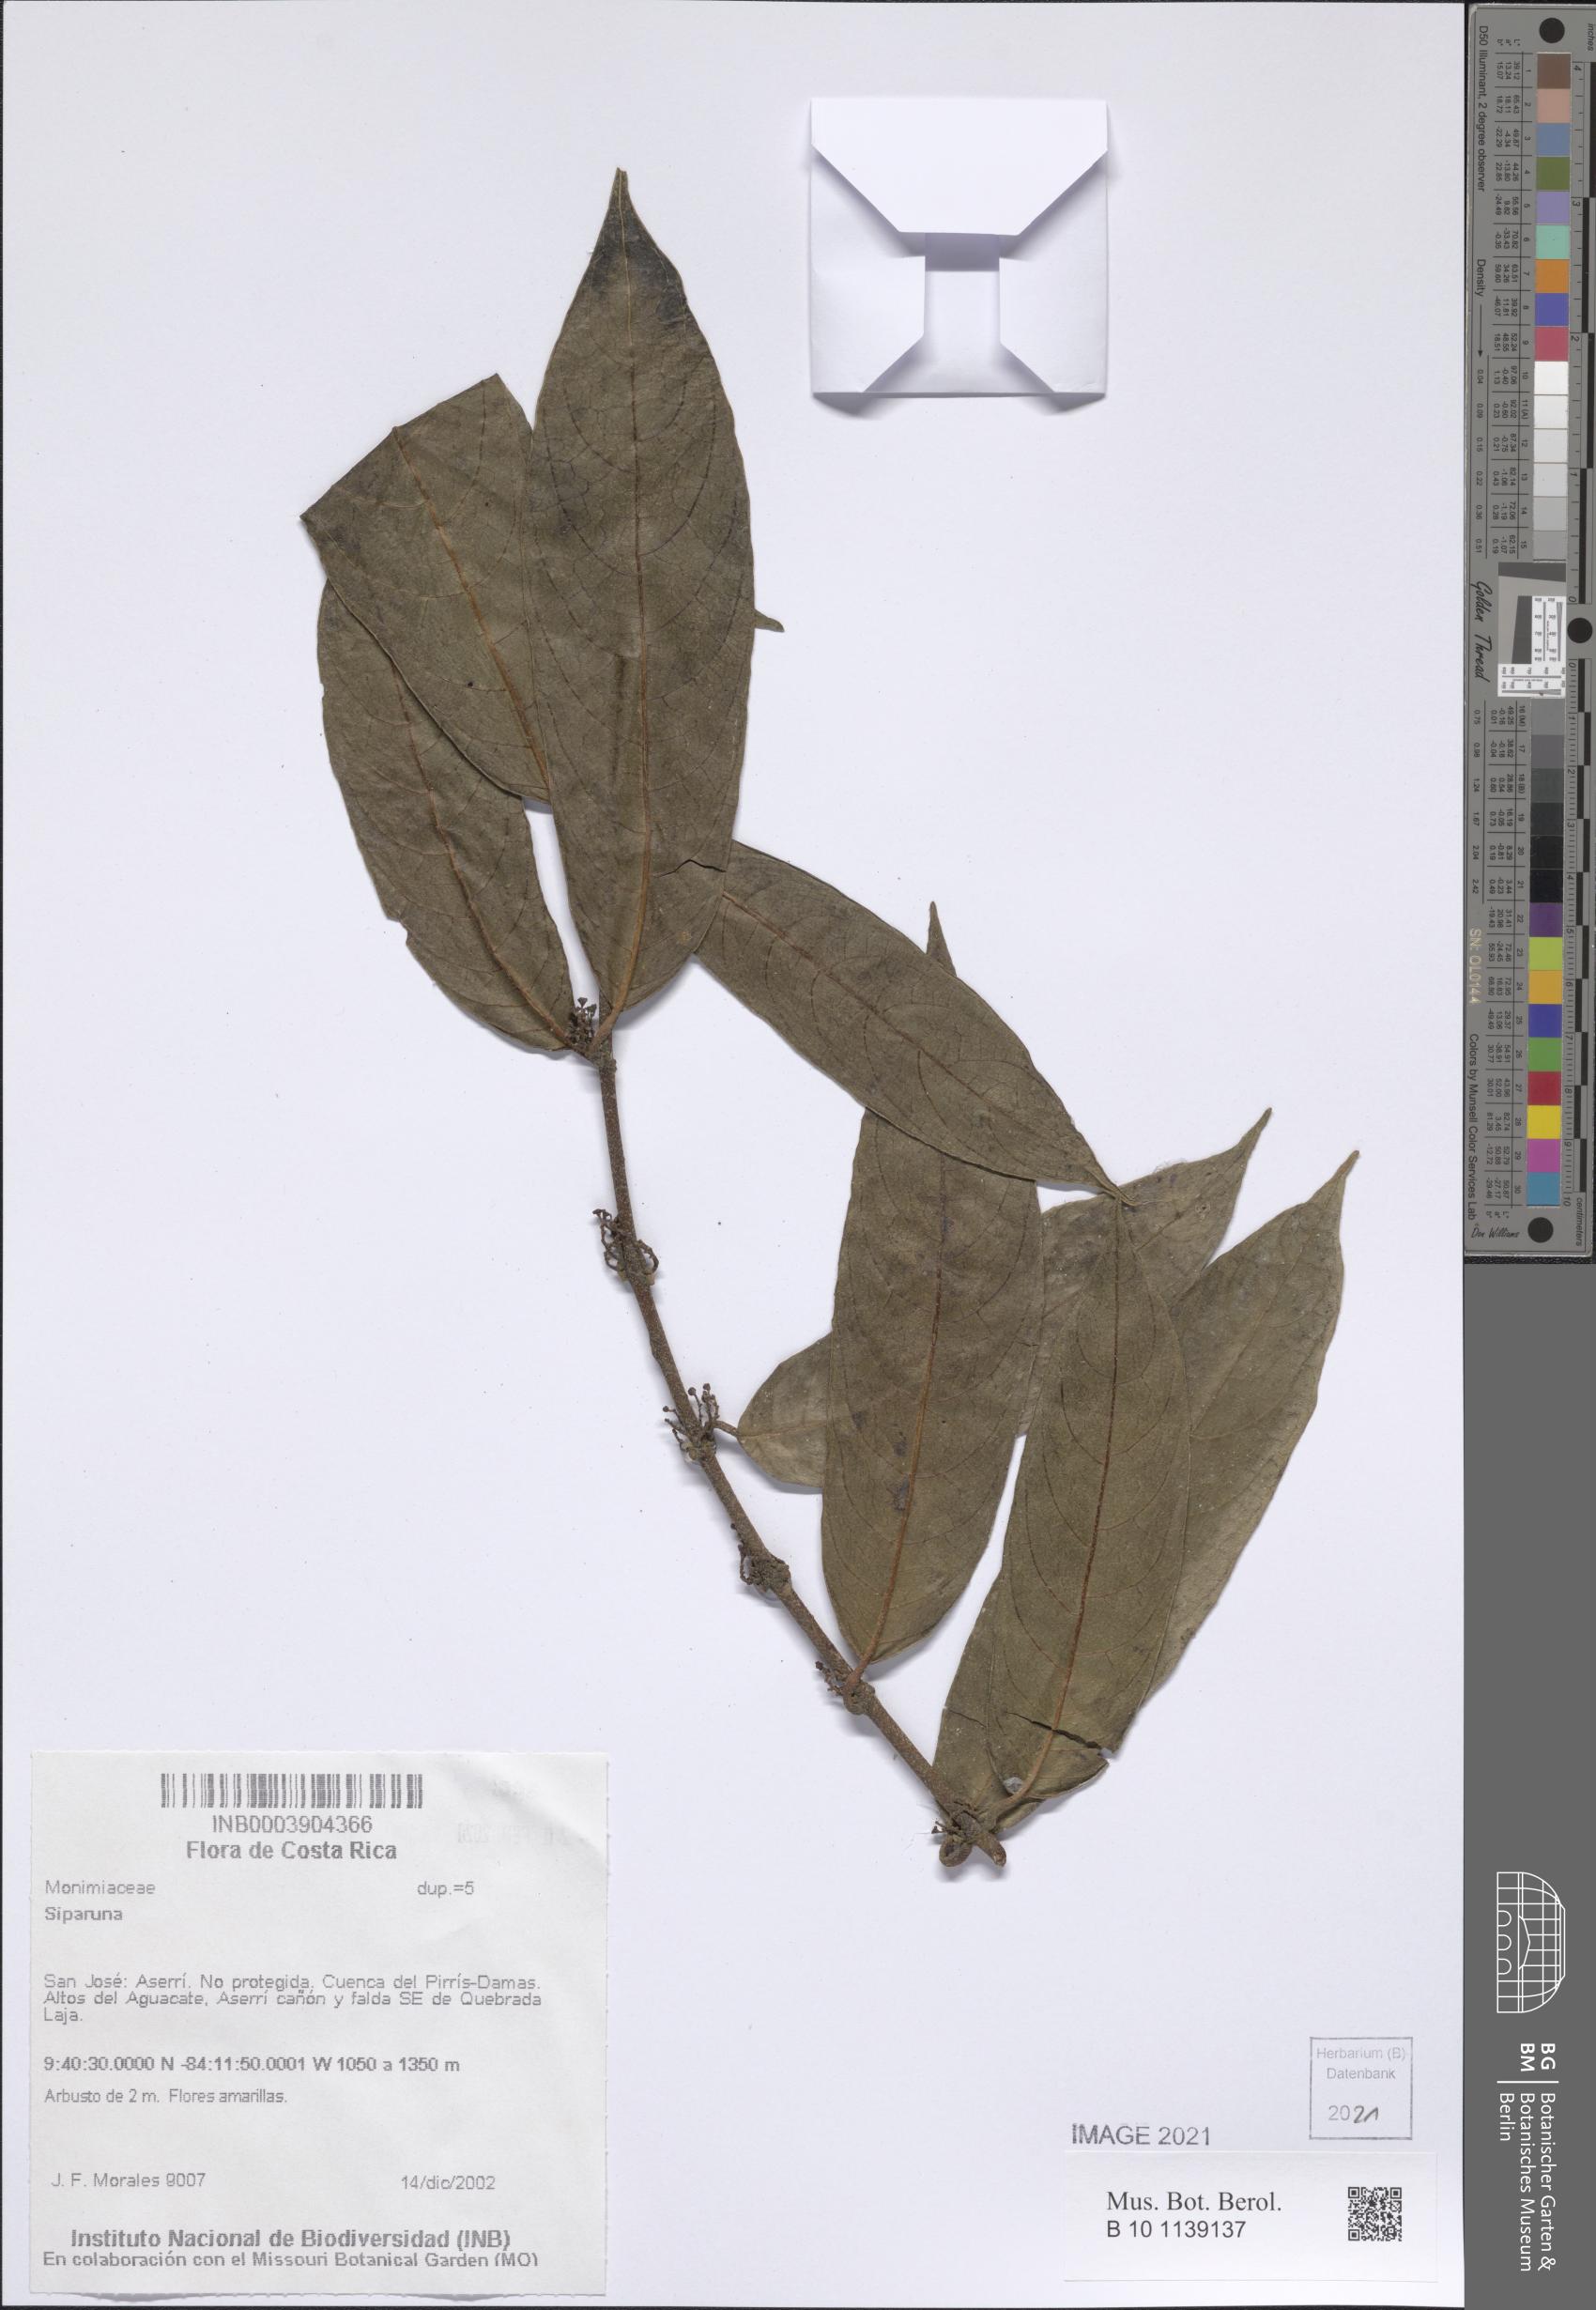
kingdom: Plantae
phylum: Tracheophyta
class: Magnoliopsida
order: Laurales
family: Siparunaceae
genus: Siparuna
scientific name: Siparuna
